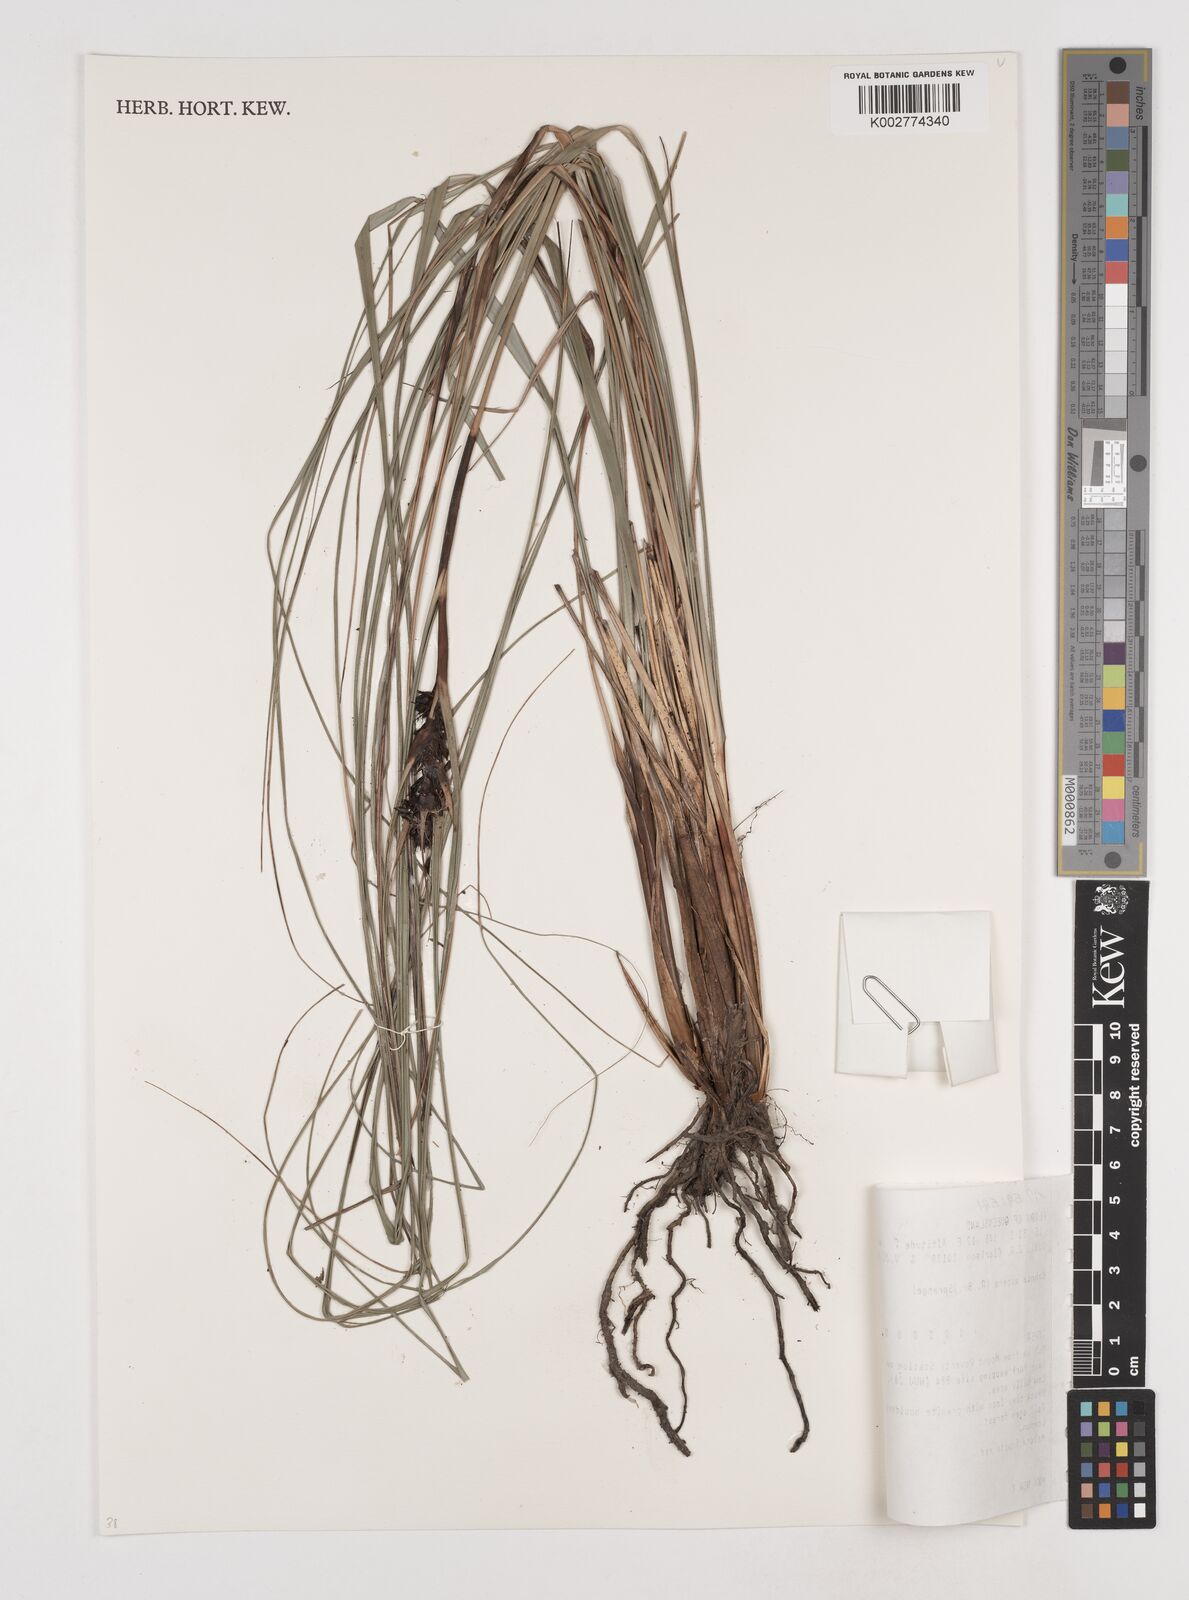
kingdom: Plantae
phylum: Tracheophyta
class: Liliopsida
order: Poales
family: Cyperaceae
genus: Gahnia
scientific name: Gahnia aspera
